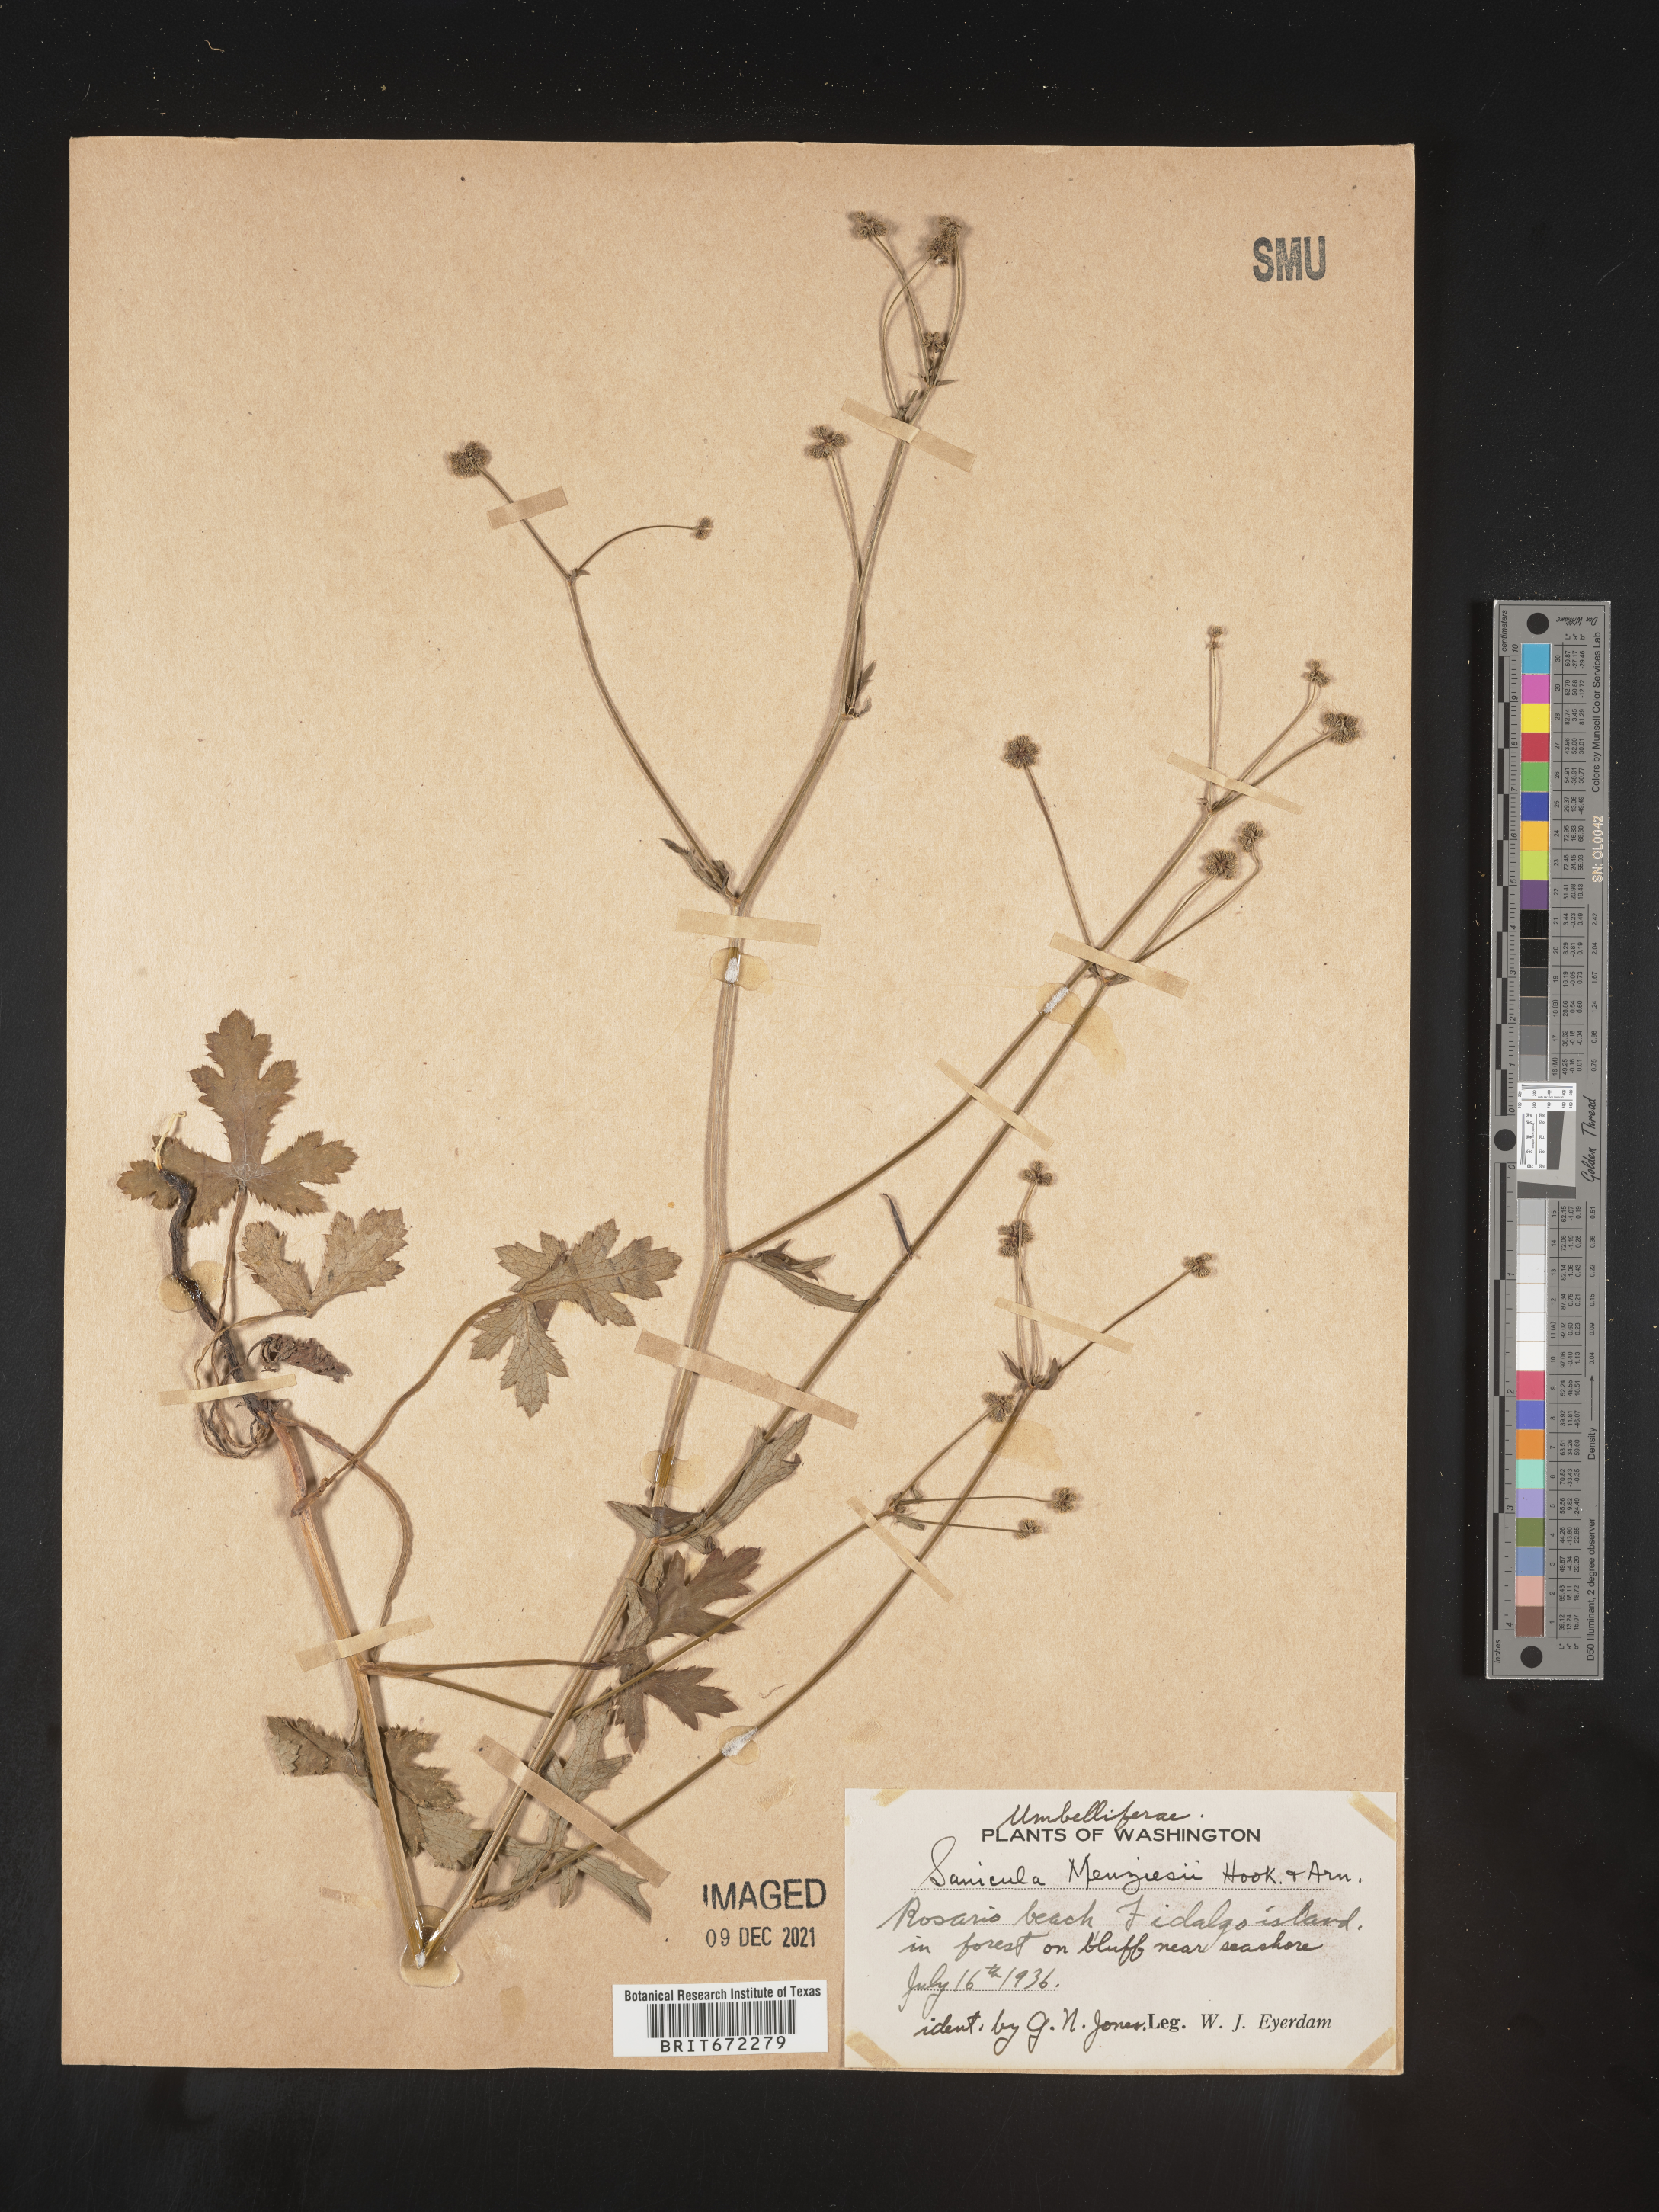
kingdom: Plantae
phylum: Tracheophyta
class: Magnoliopsida
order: Apiales
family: Apiaceae
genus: Sanicula
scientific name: Sanicula
